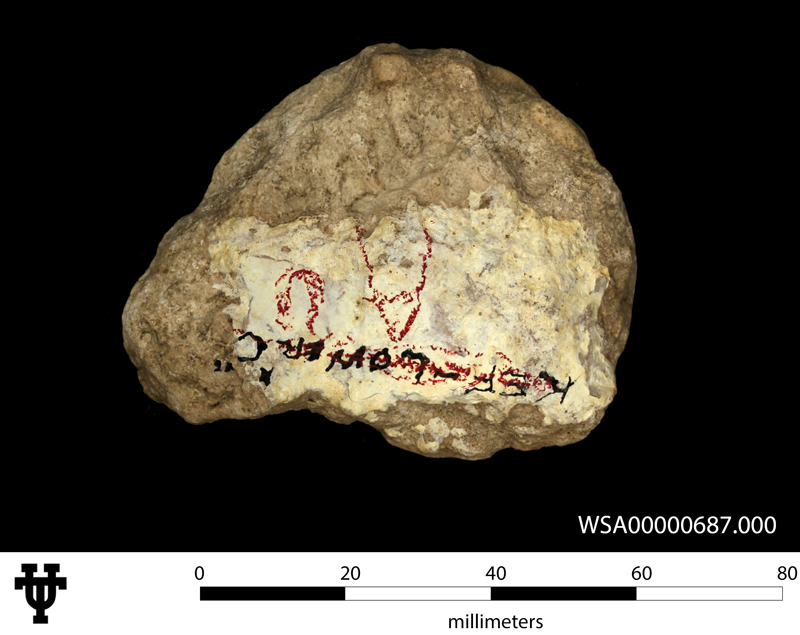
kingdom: Animalia
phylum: Mollusca
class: Cephalopoda
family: Collignoniceratidae
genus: Texanites
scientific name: Texanites
